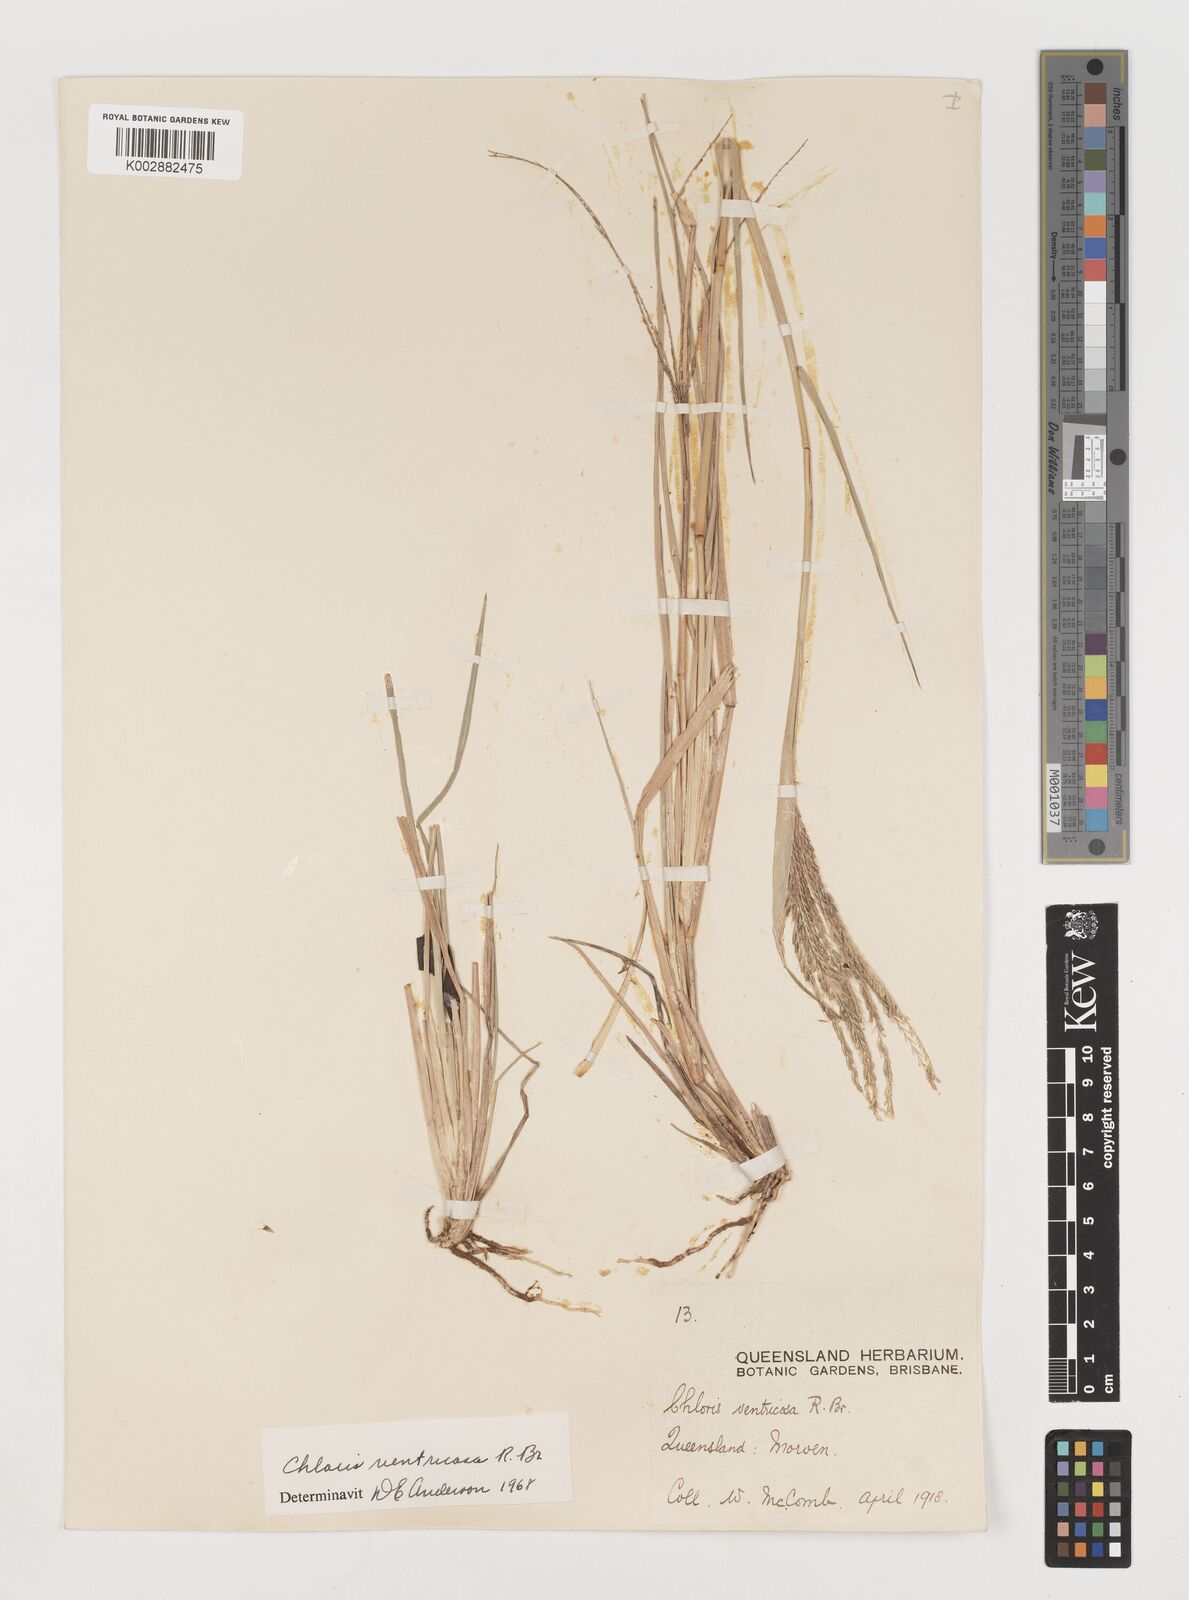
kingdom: Plantae
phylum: Tracheophyta
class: Liliopsida
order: Poales
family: Poaceae
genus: Chloris
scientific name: Chloris ventricosa
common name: Australian windmill grass
